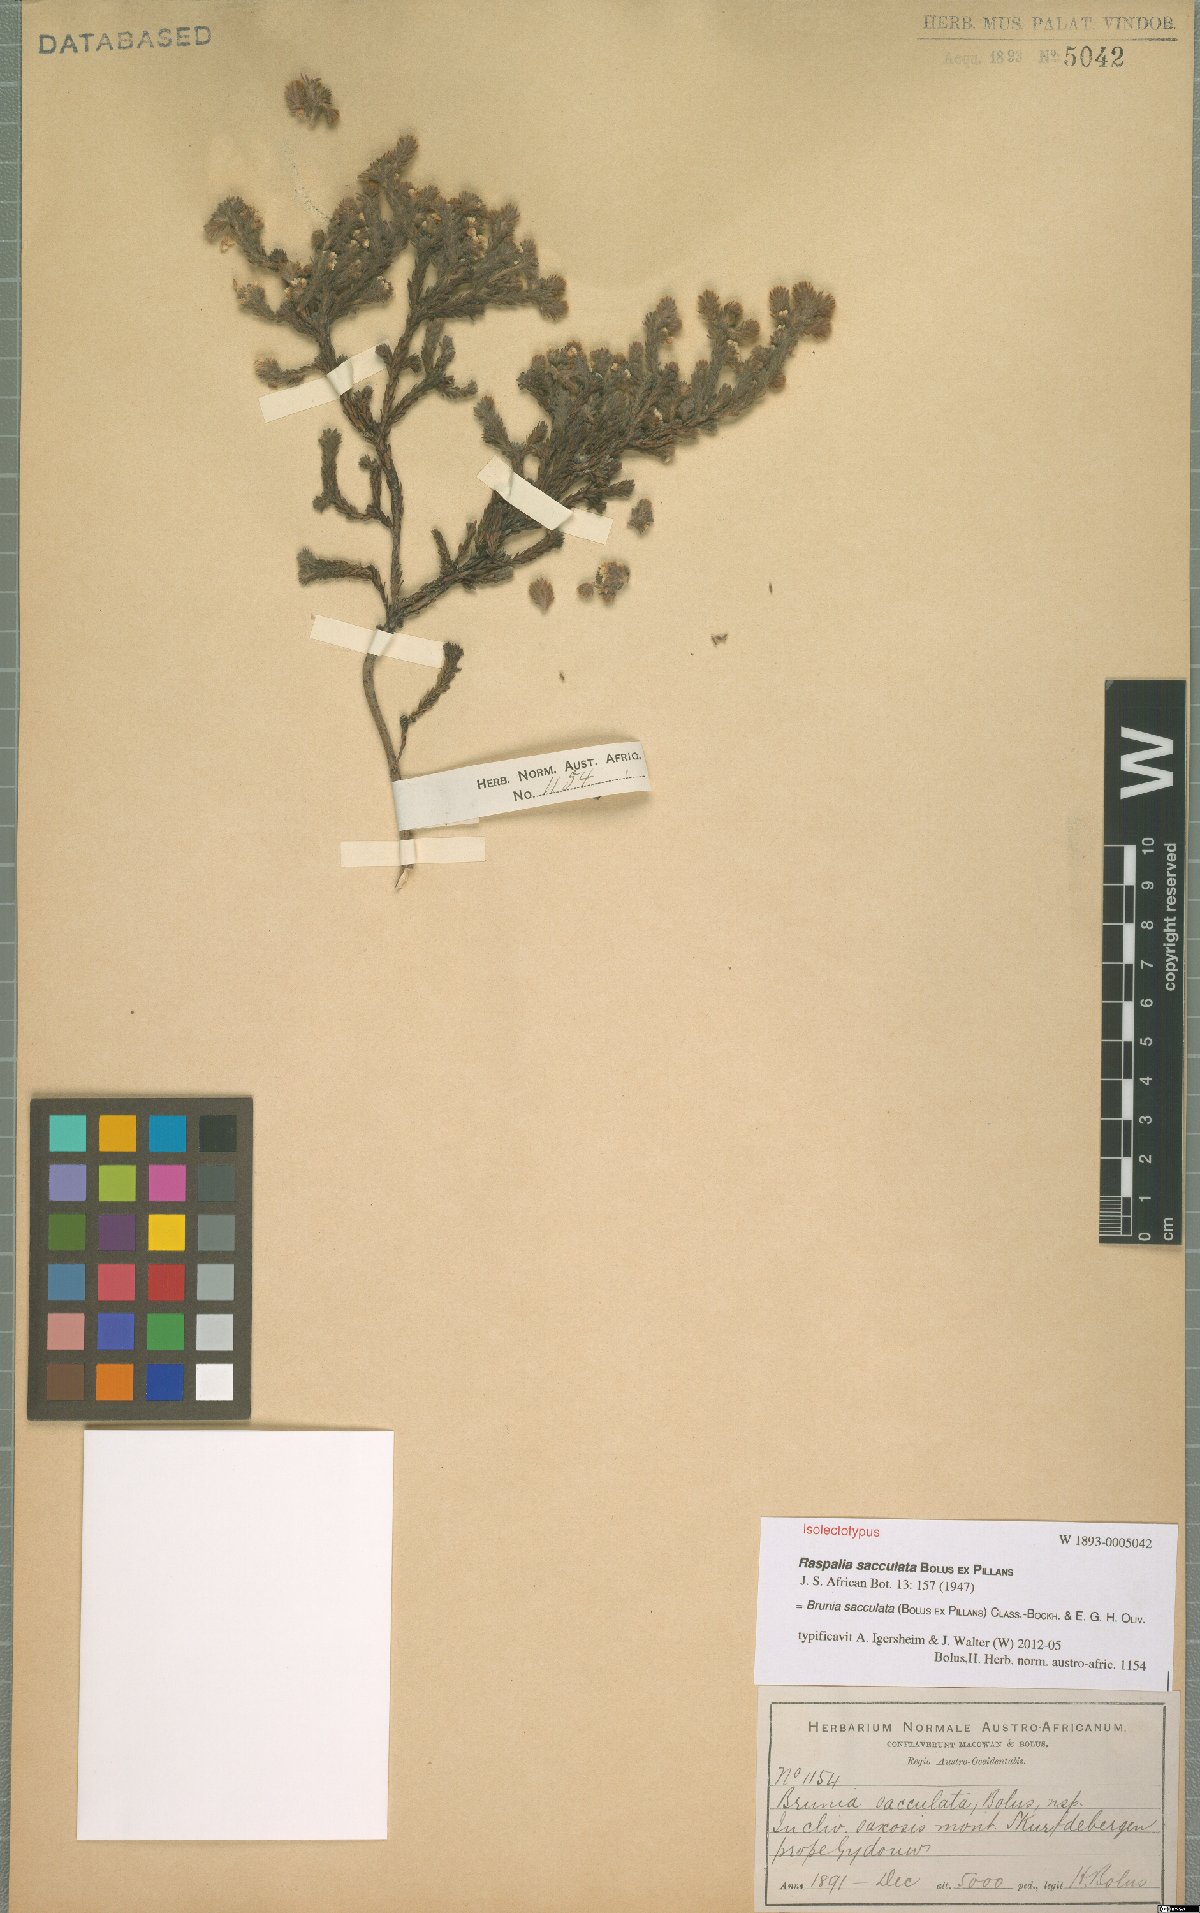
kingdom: Plantae
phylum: Tracheophyta
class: Magnoliopsida
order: Bruniales
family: Bruniaceae
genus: Brunia
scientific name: Brunia sacculata
